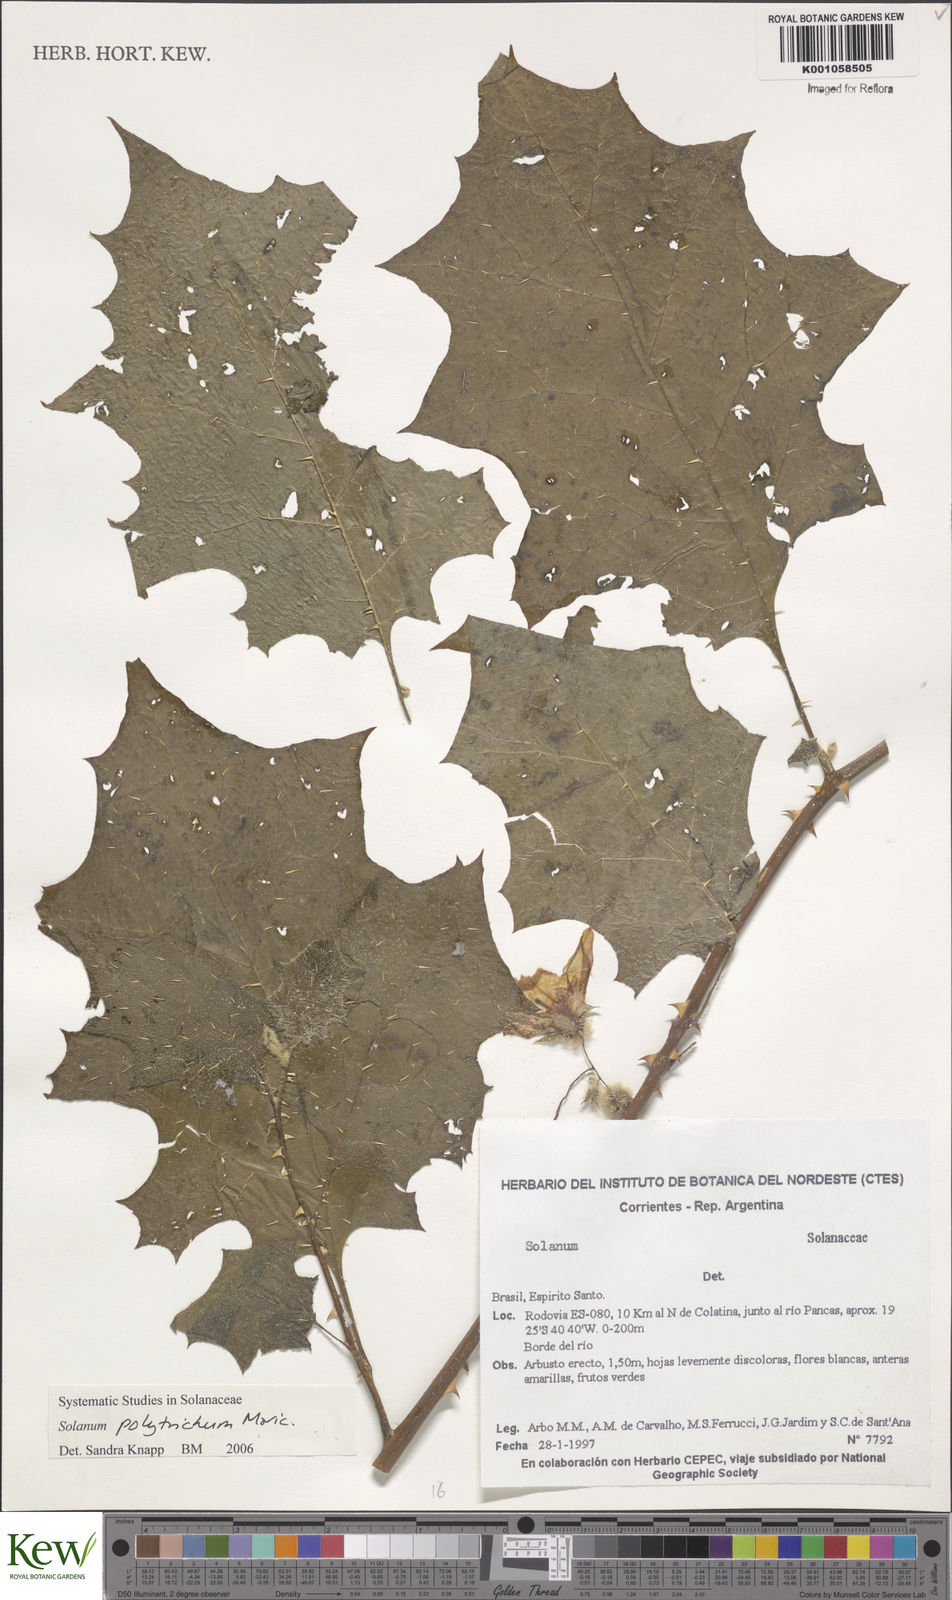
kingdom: Plantae
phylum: Tracheophyta
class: Magnoliopsida
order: Solanales
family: Solanaceae
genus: Solanum
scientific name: Solanum polytrichum
